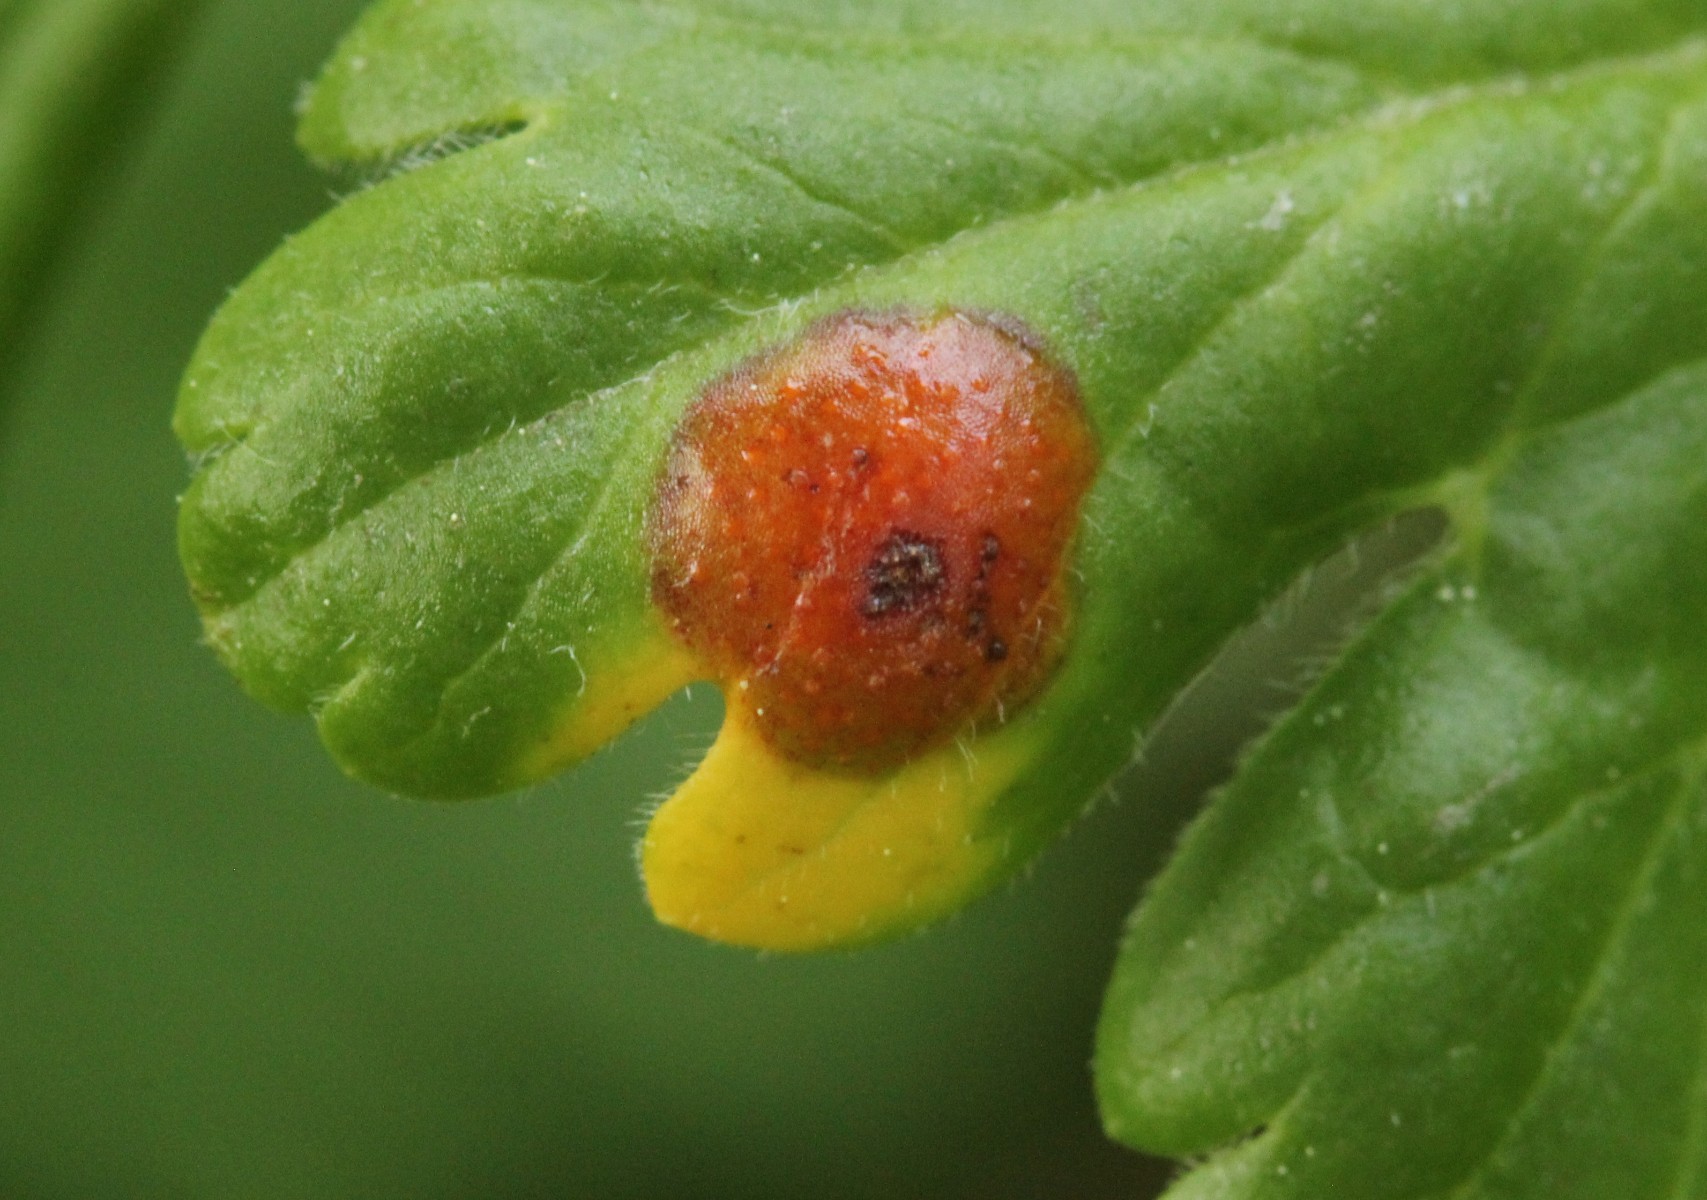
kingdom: Fungi
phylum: Basidiomycota
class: Pucciniomycetes
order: Pucciniales
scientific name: Pucciniales
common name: rustsvampeordenen
